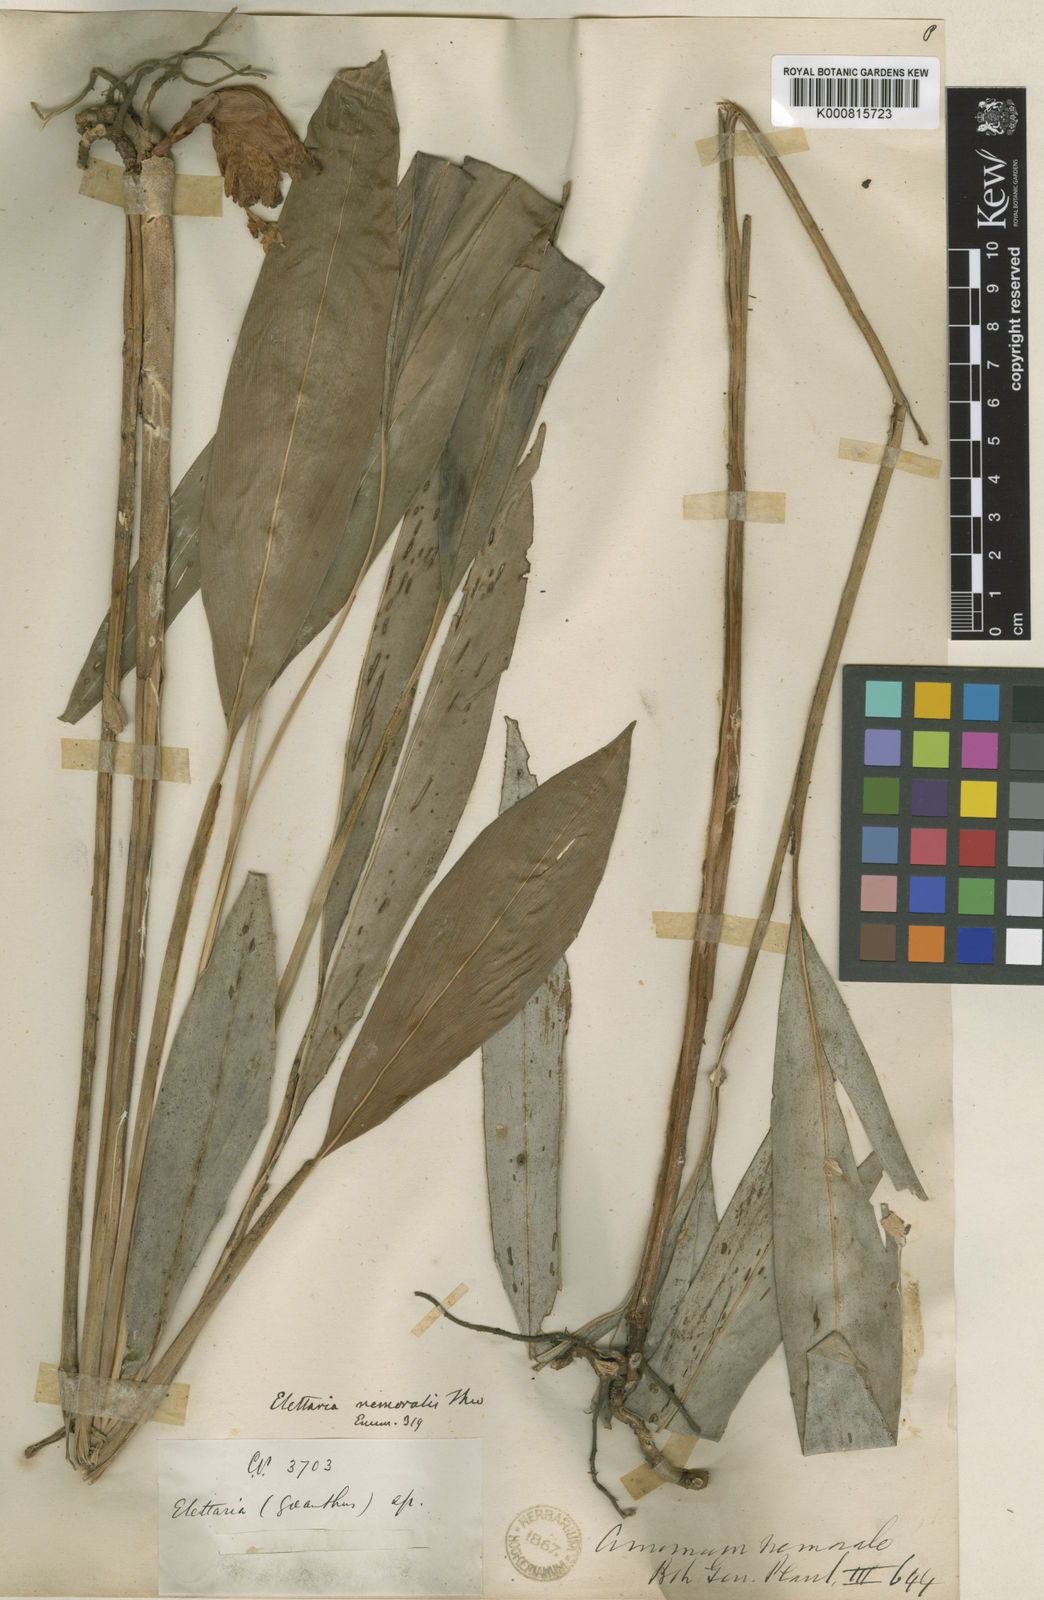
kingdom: Plantae
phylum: Tracheophyta
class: Liliopsida
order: Zingiberales
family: Zingiberaceae
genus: Amomum
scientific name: Amomum nemorale
